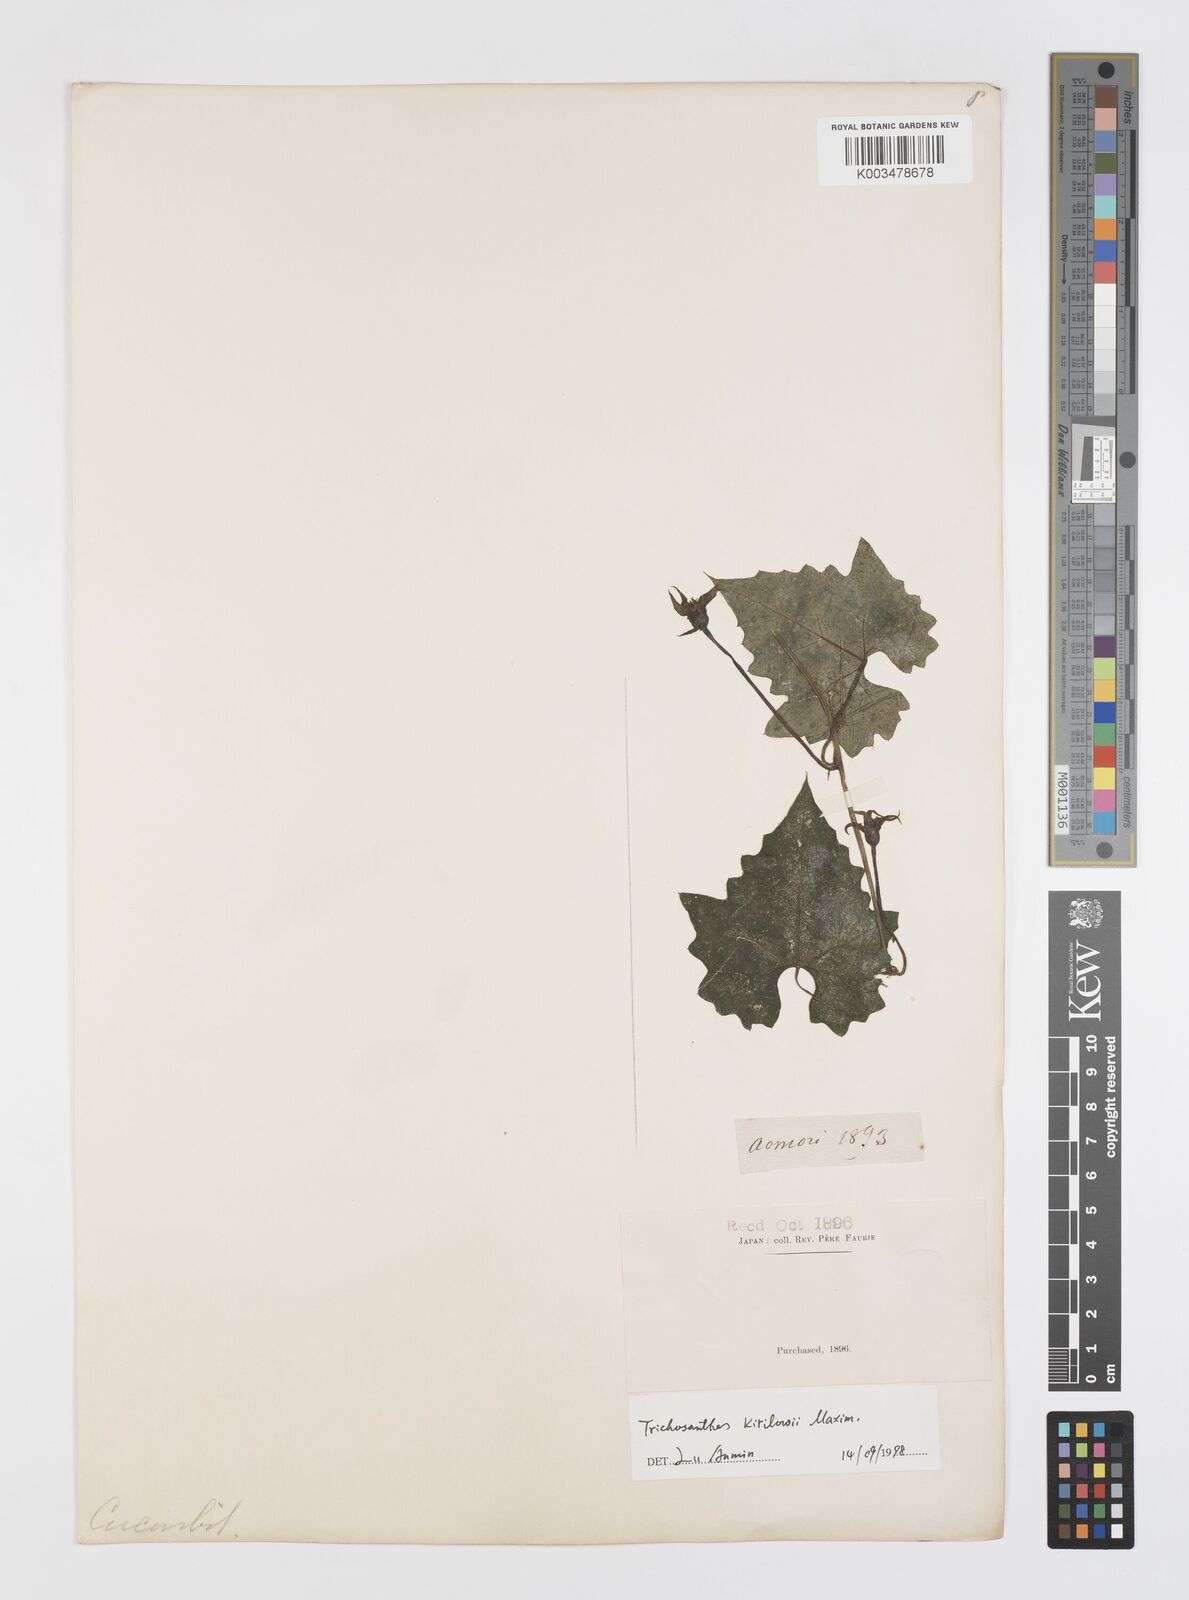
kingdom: Plantae
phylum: Tracheophyta
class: Magnoliopsida
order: Cucurbitales
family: Cucurbitaceae
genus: Trichosanthes
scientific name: Trichosanthes kirilowii
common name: Chinese-cucumber
